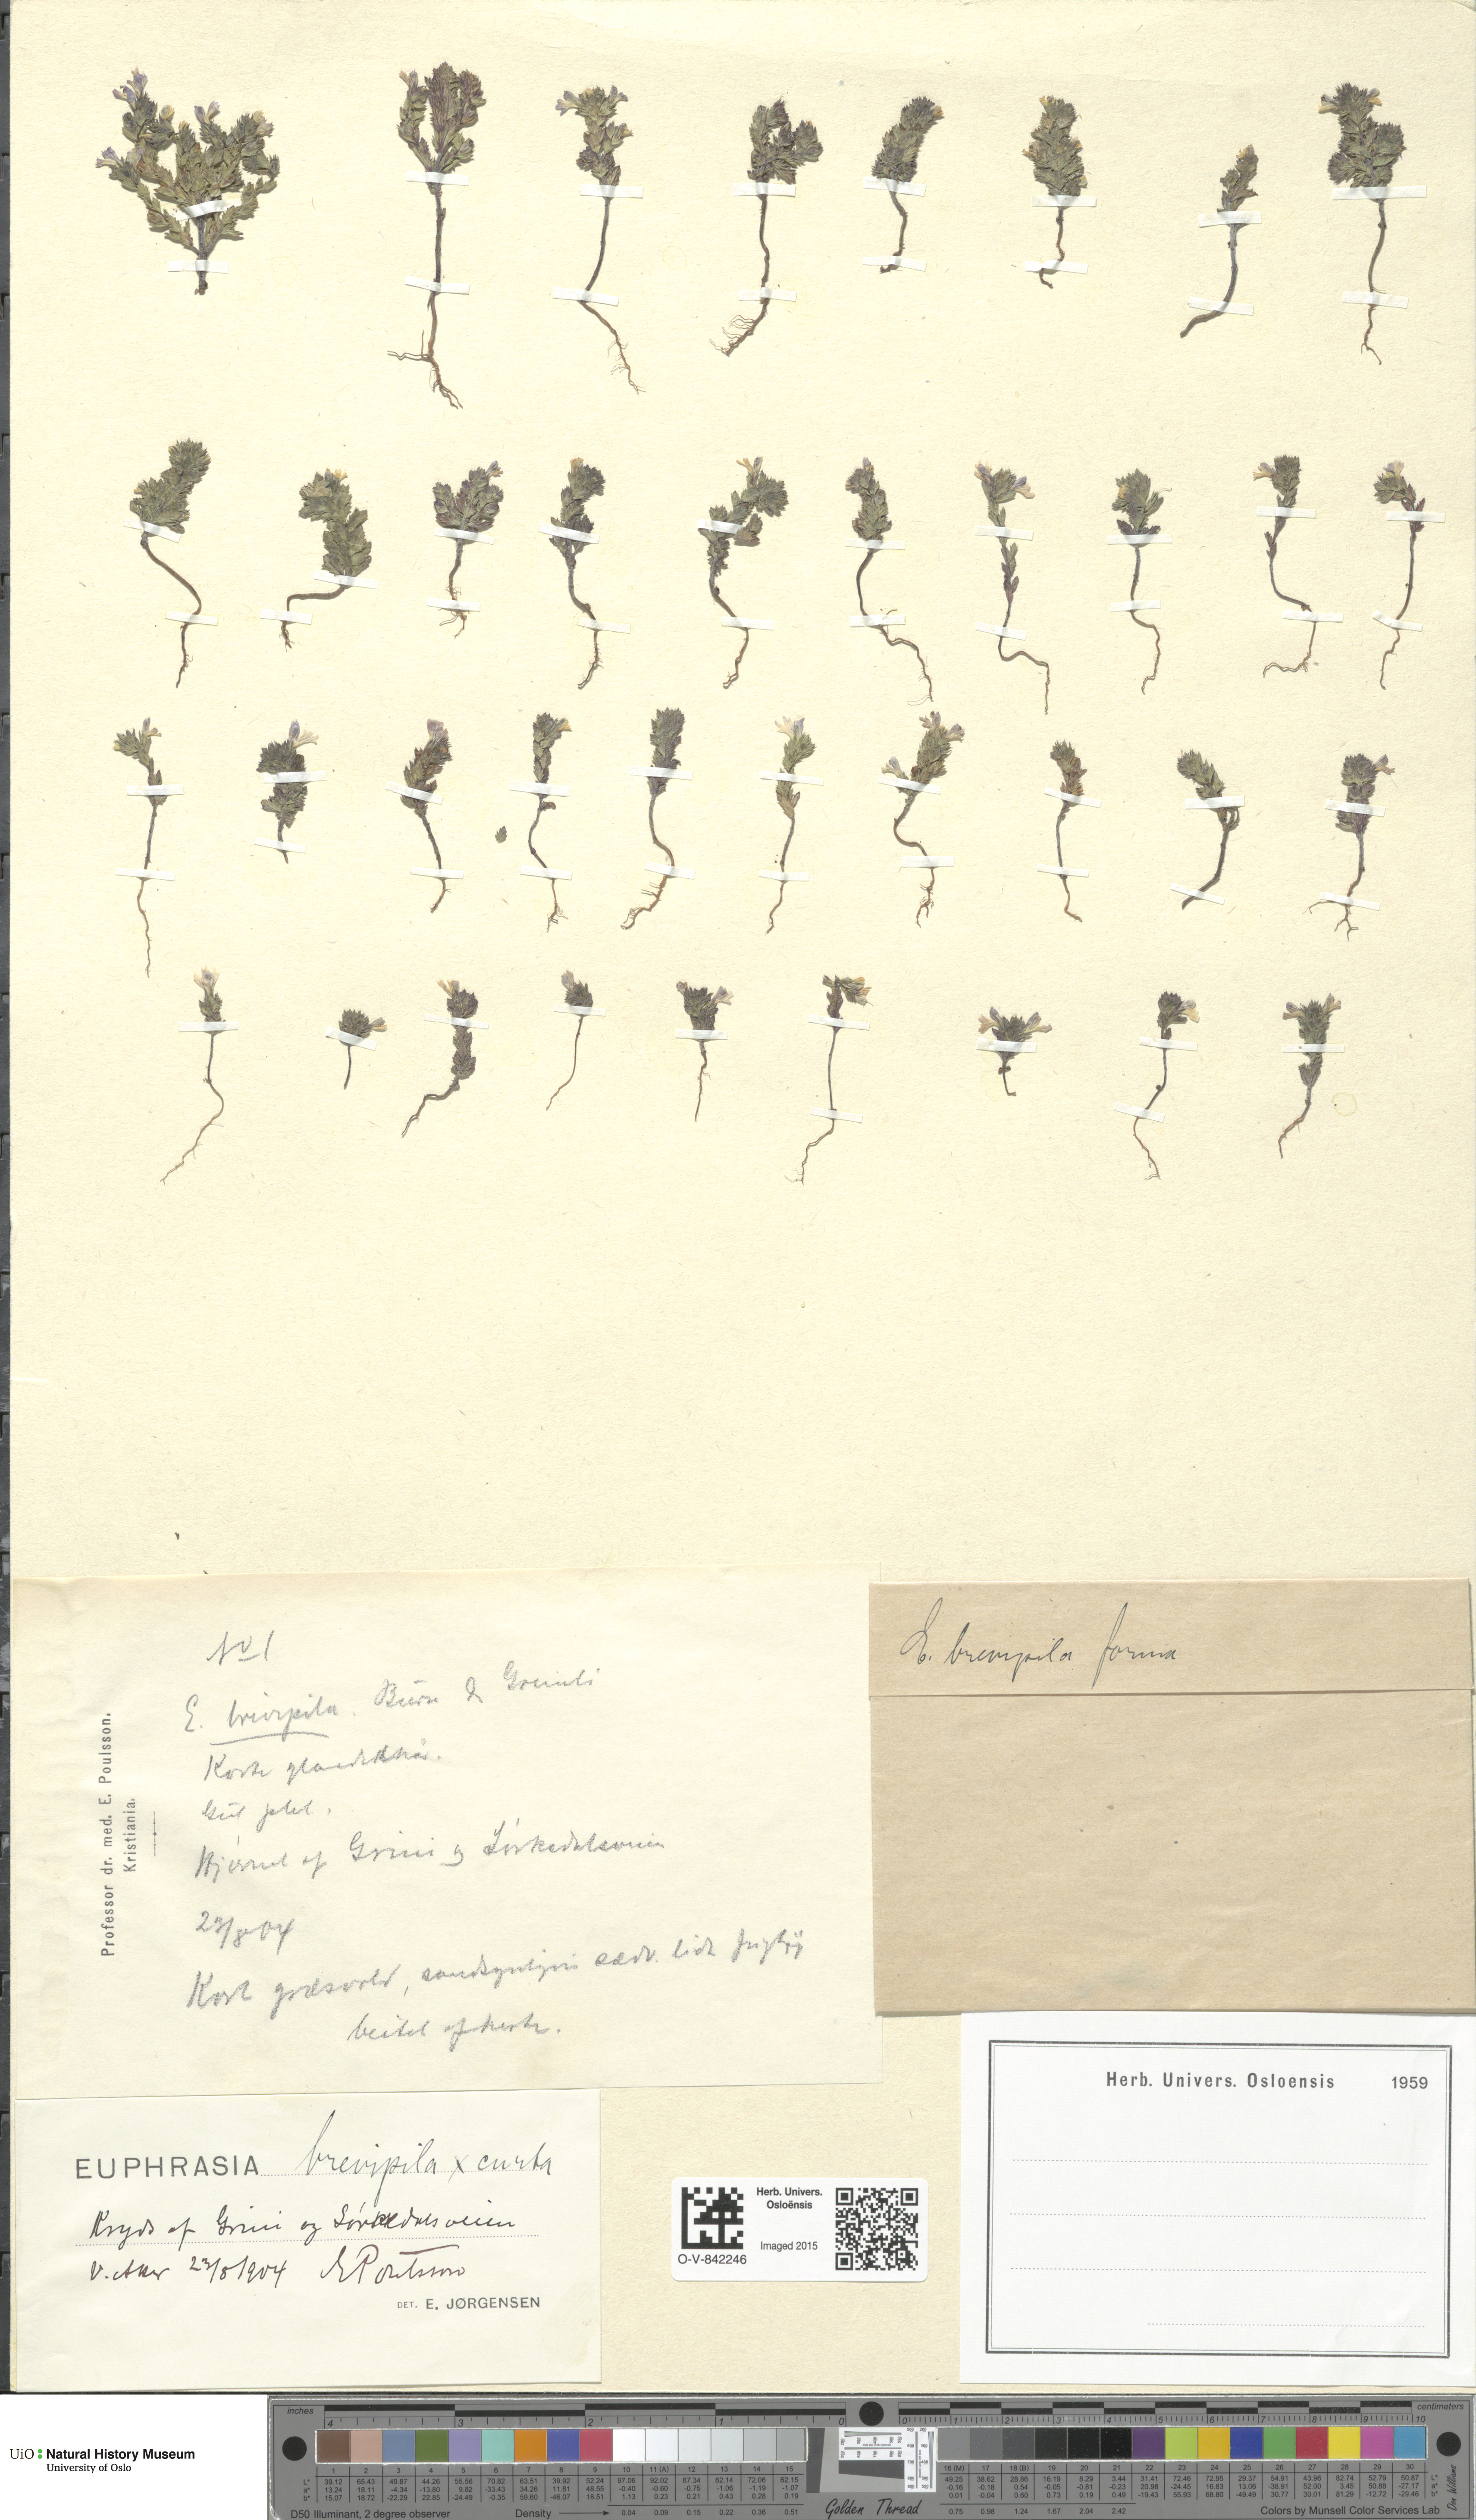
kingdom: Plantae
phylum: Tracheophyta
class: Magnoliopsida
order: Lamiales
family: Orobanchaceae
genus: Euphrasia
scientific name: Euphrasia
